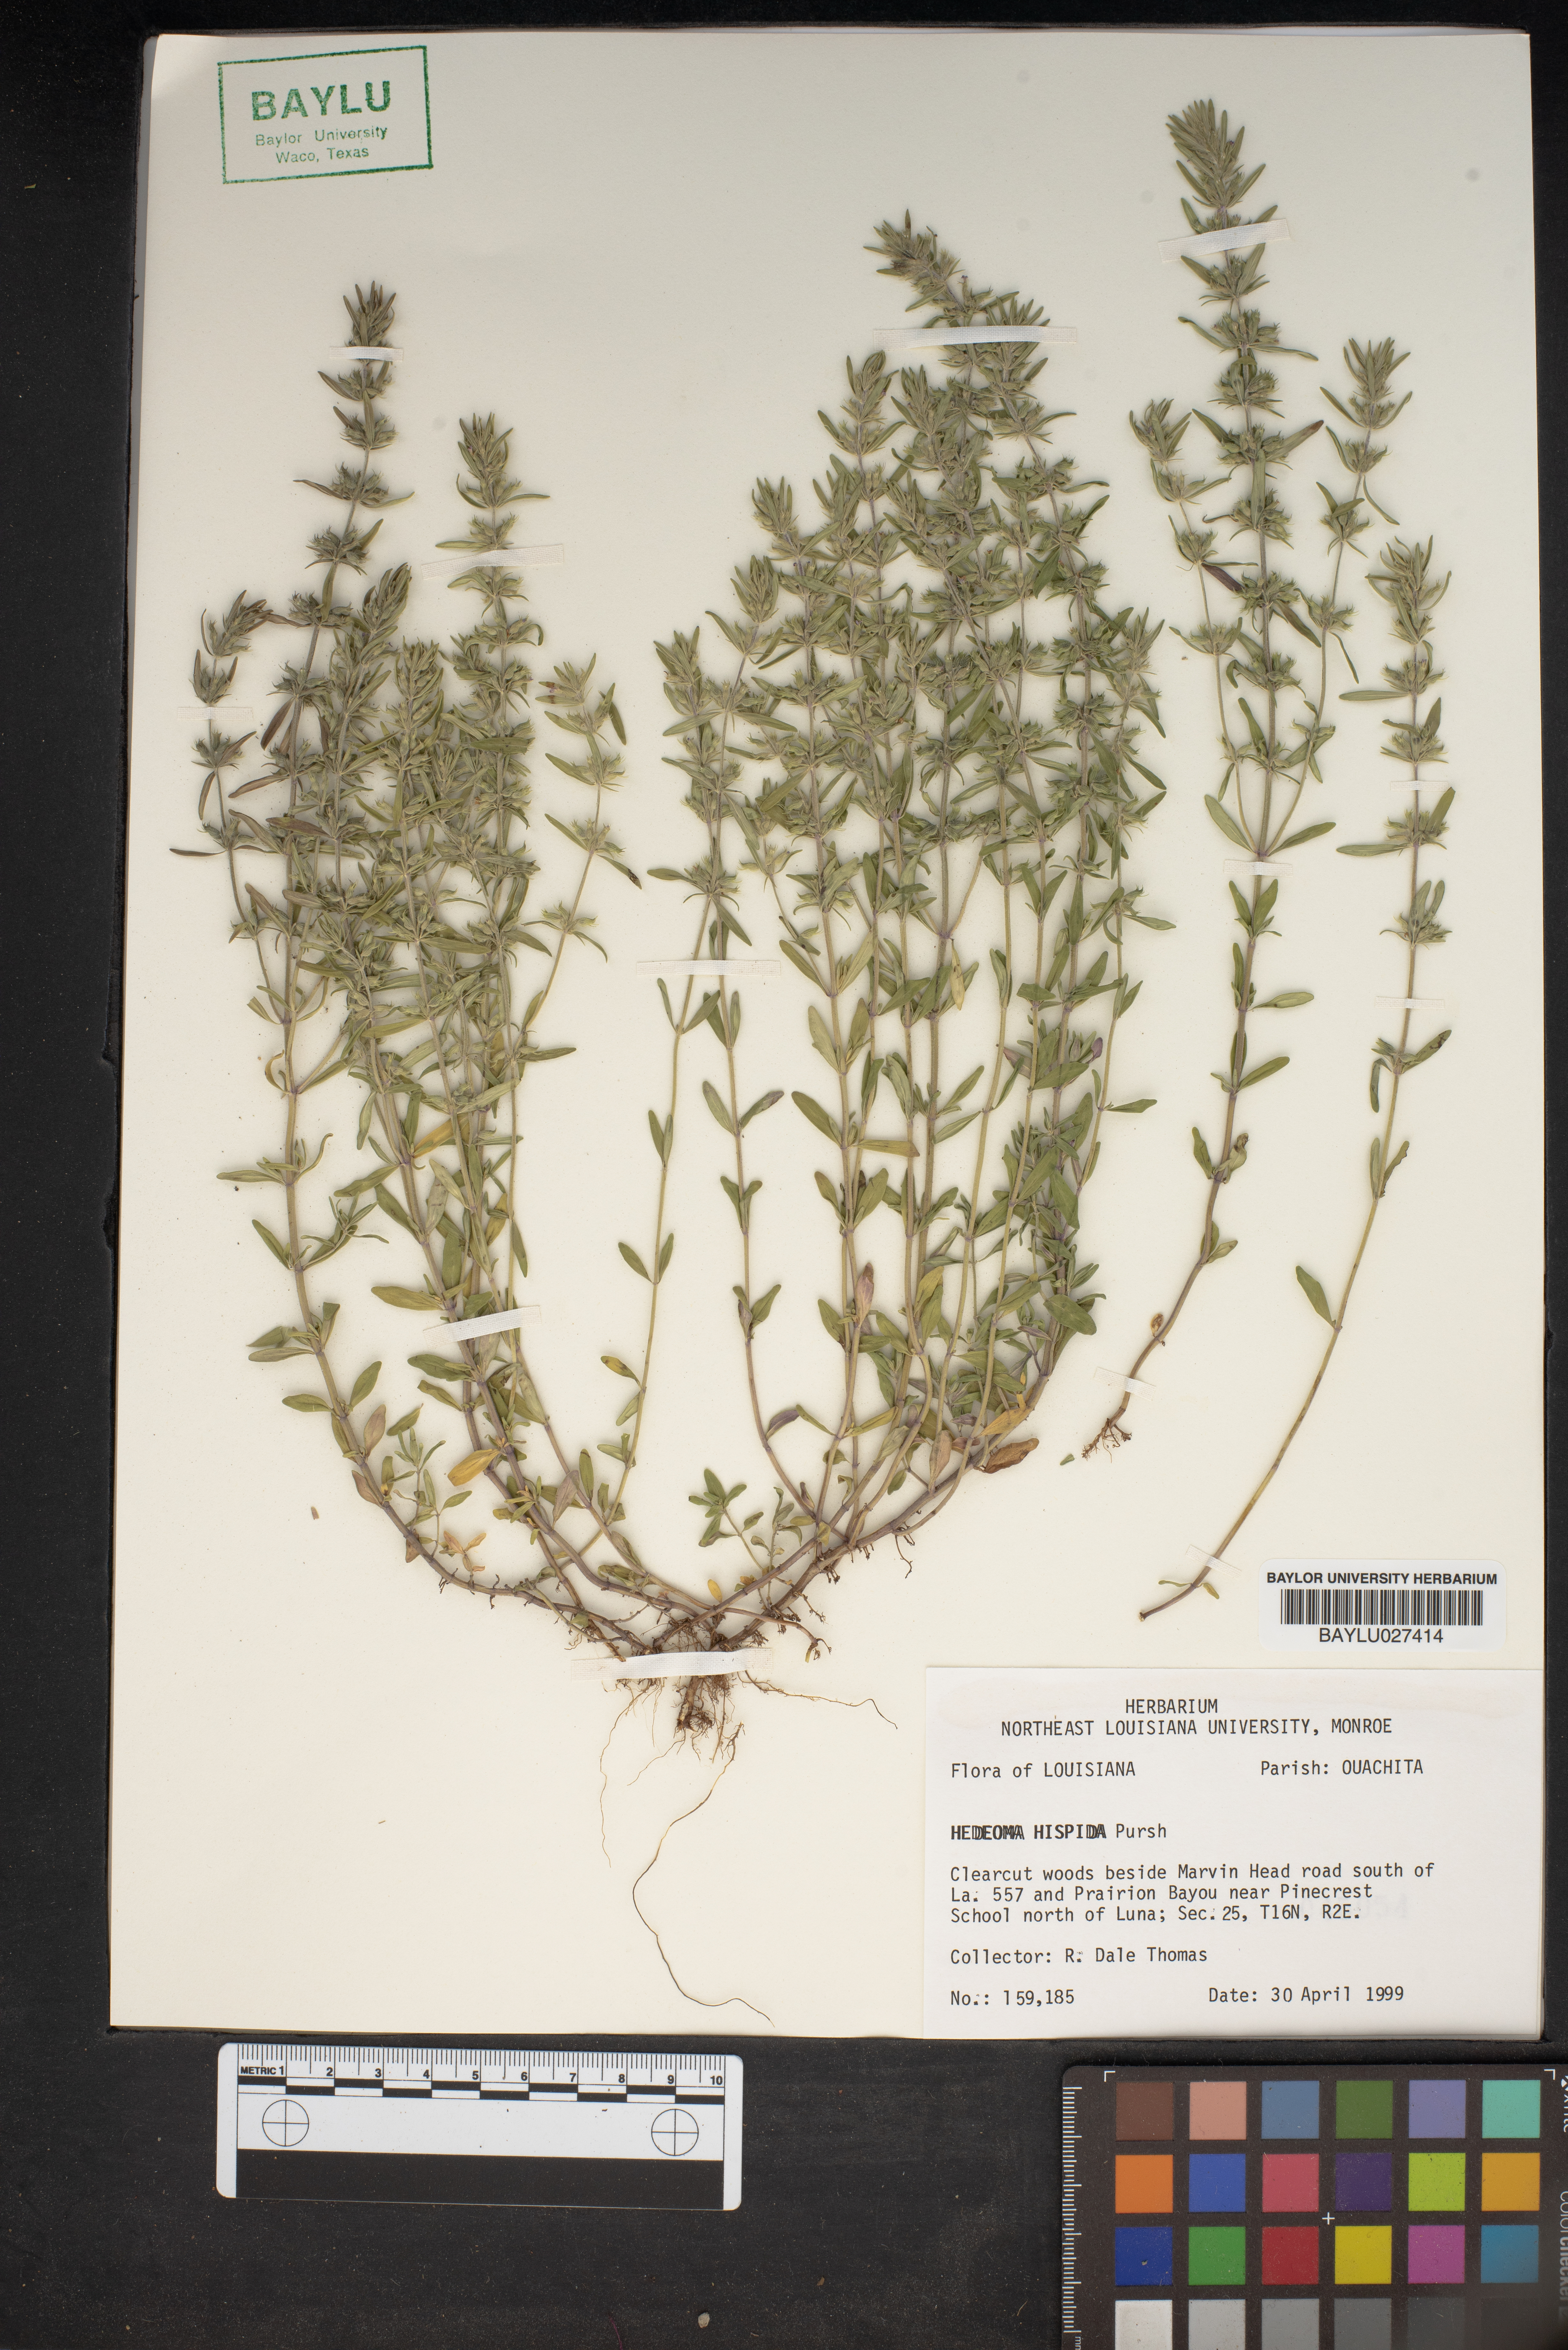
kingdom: Plantae
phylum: Tracheophyta
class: Magnoliopsida
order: Lamiales
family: Lamiaceae
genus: Hedeoma
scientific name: Hedeoma hispida
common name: Mock pennyroyal
